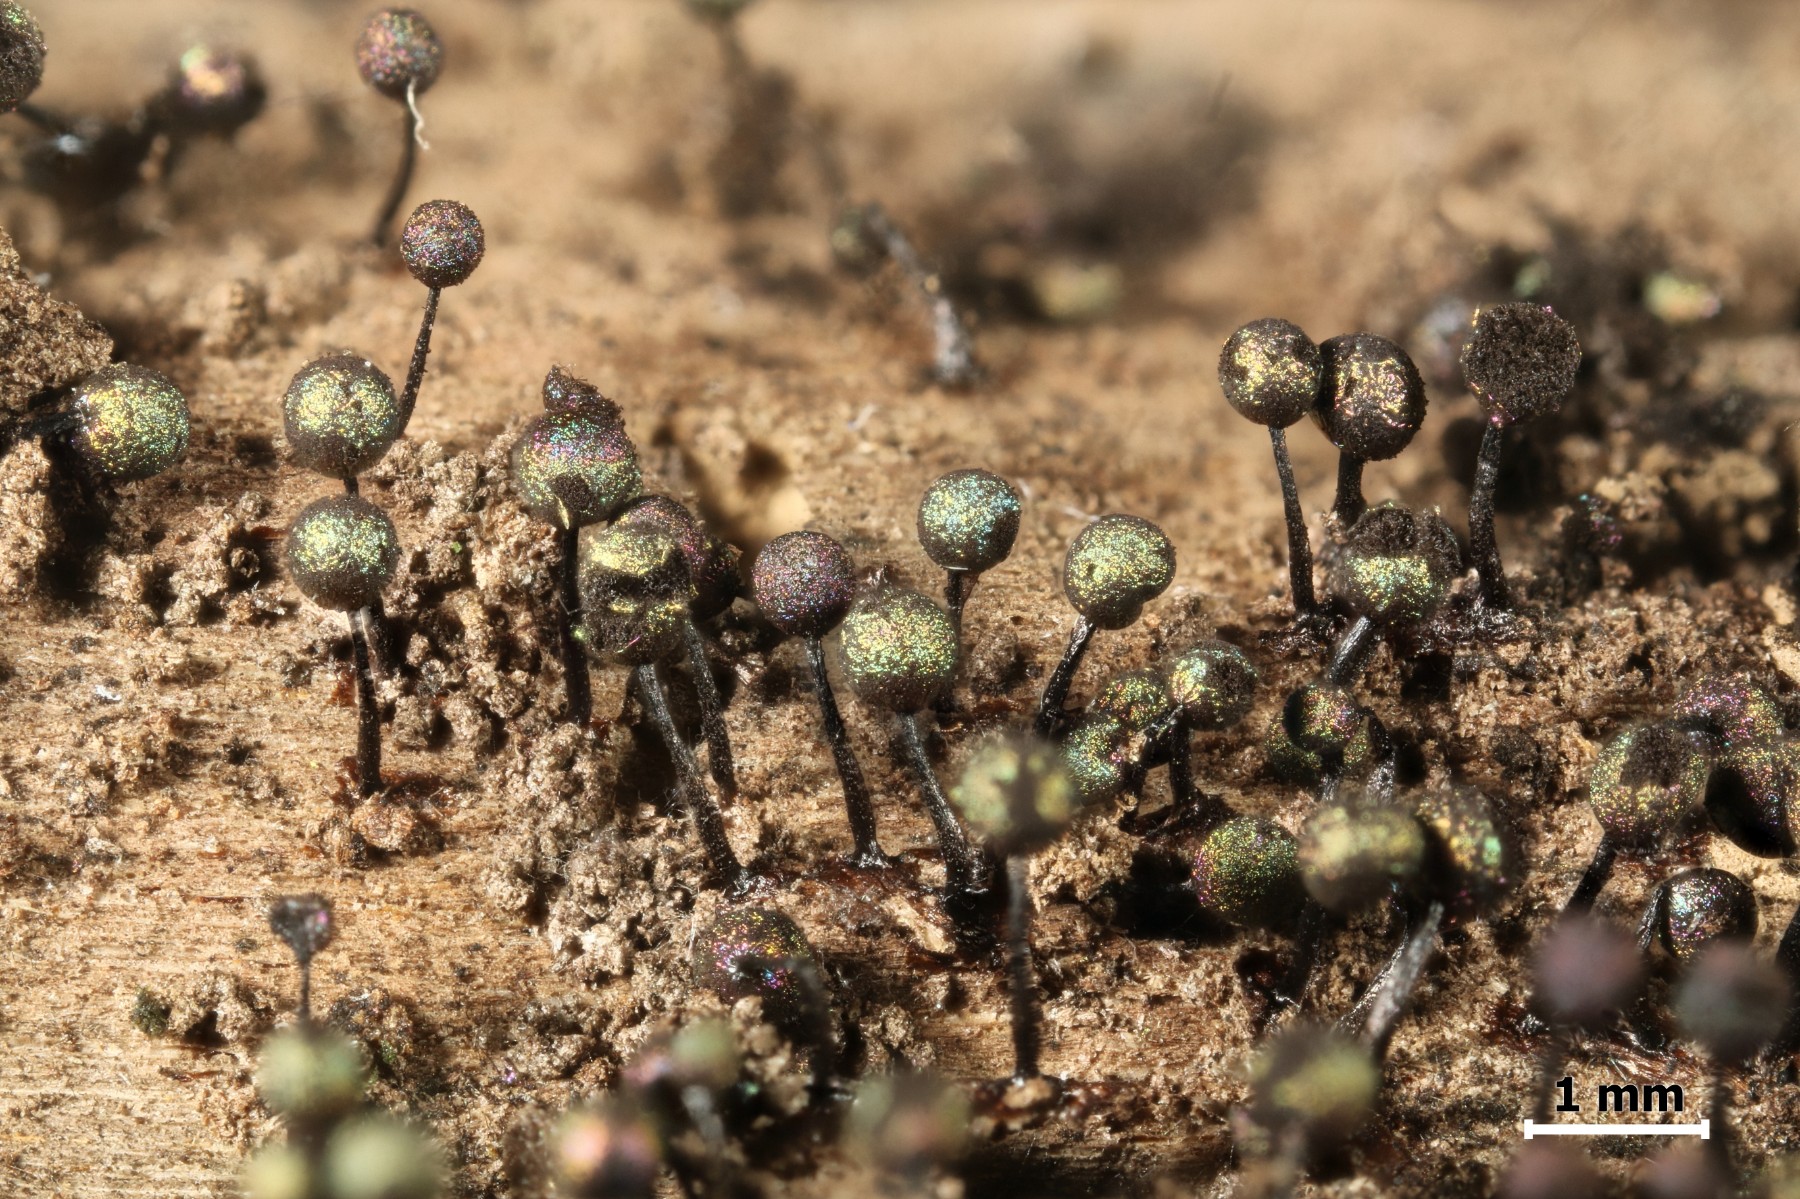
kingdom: Protozoa
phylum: Mycetozoa
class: Myxomycetes
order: Stemonitidales
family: Stemonitidaceae
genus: Lamproderma
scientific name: Lamproderma columbinum
